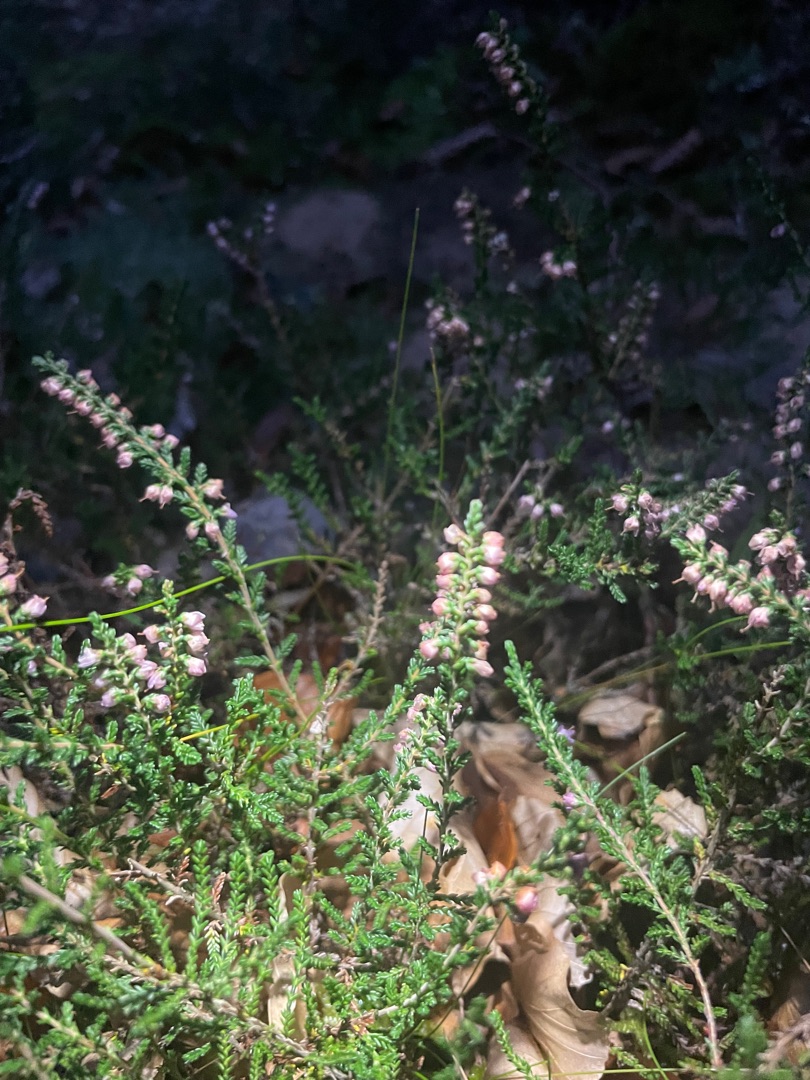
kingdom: Plantae
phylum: Tracheophyta
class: Magnoliopsida
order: Ericales
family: Ericaceae
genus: Calluna
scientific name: Calluna vulgaris
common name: Hedelyng
